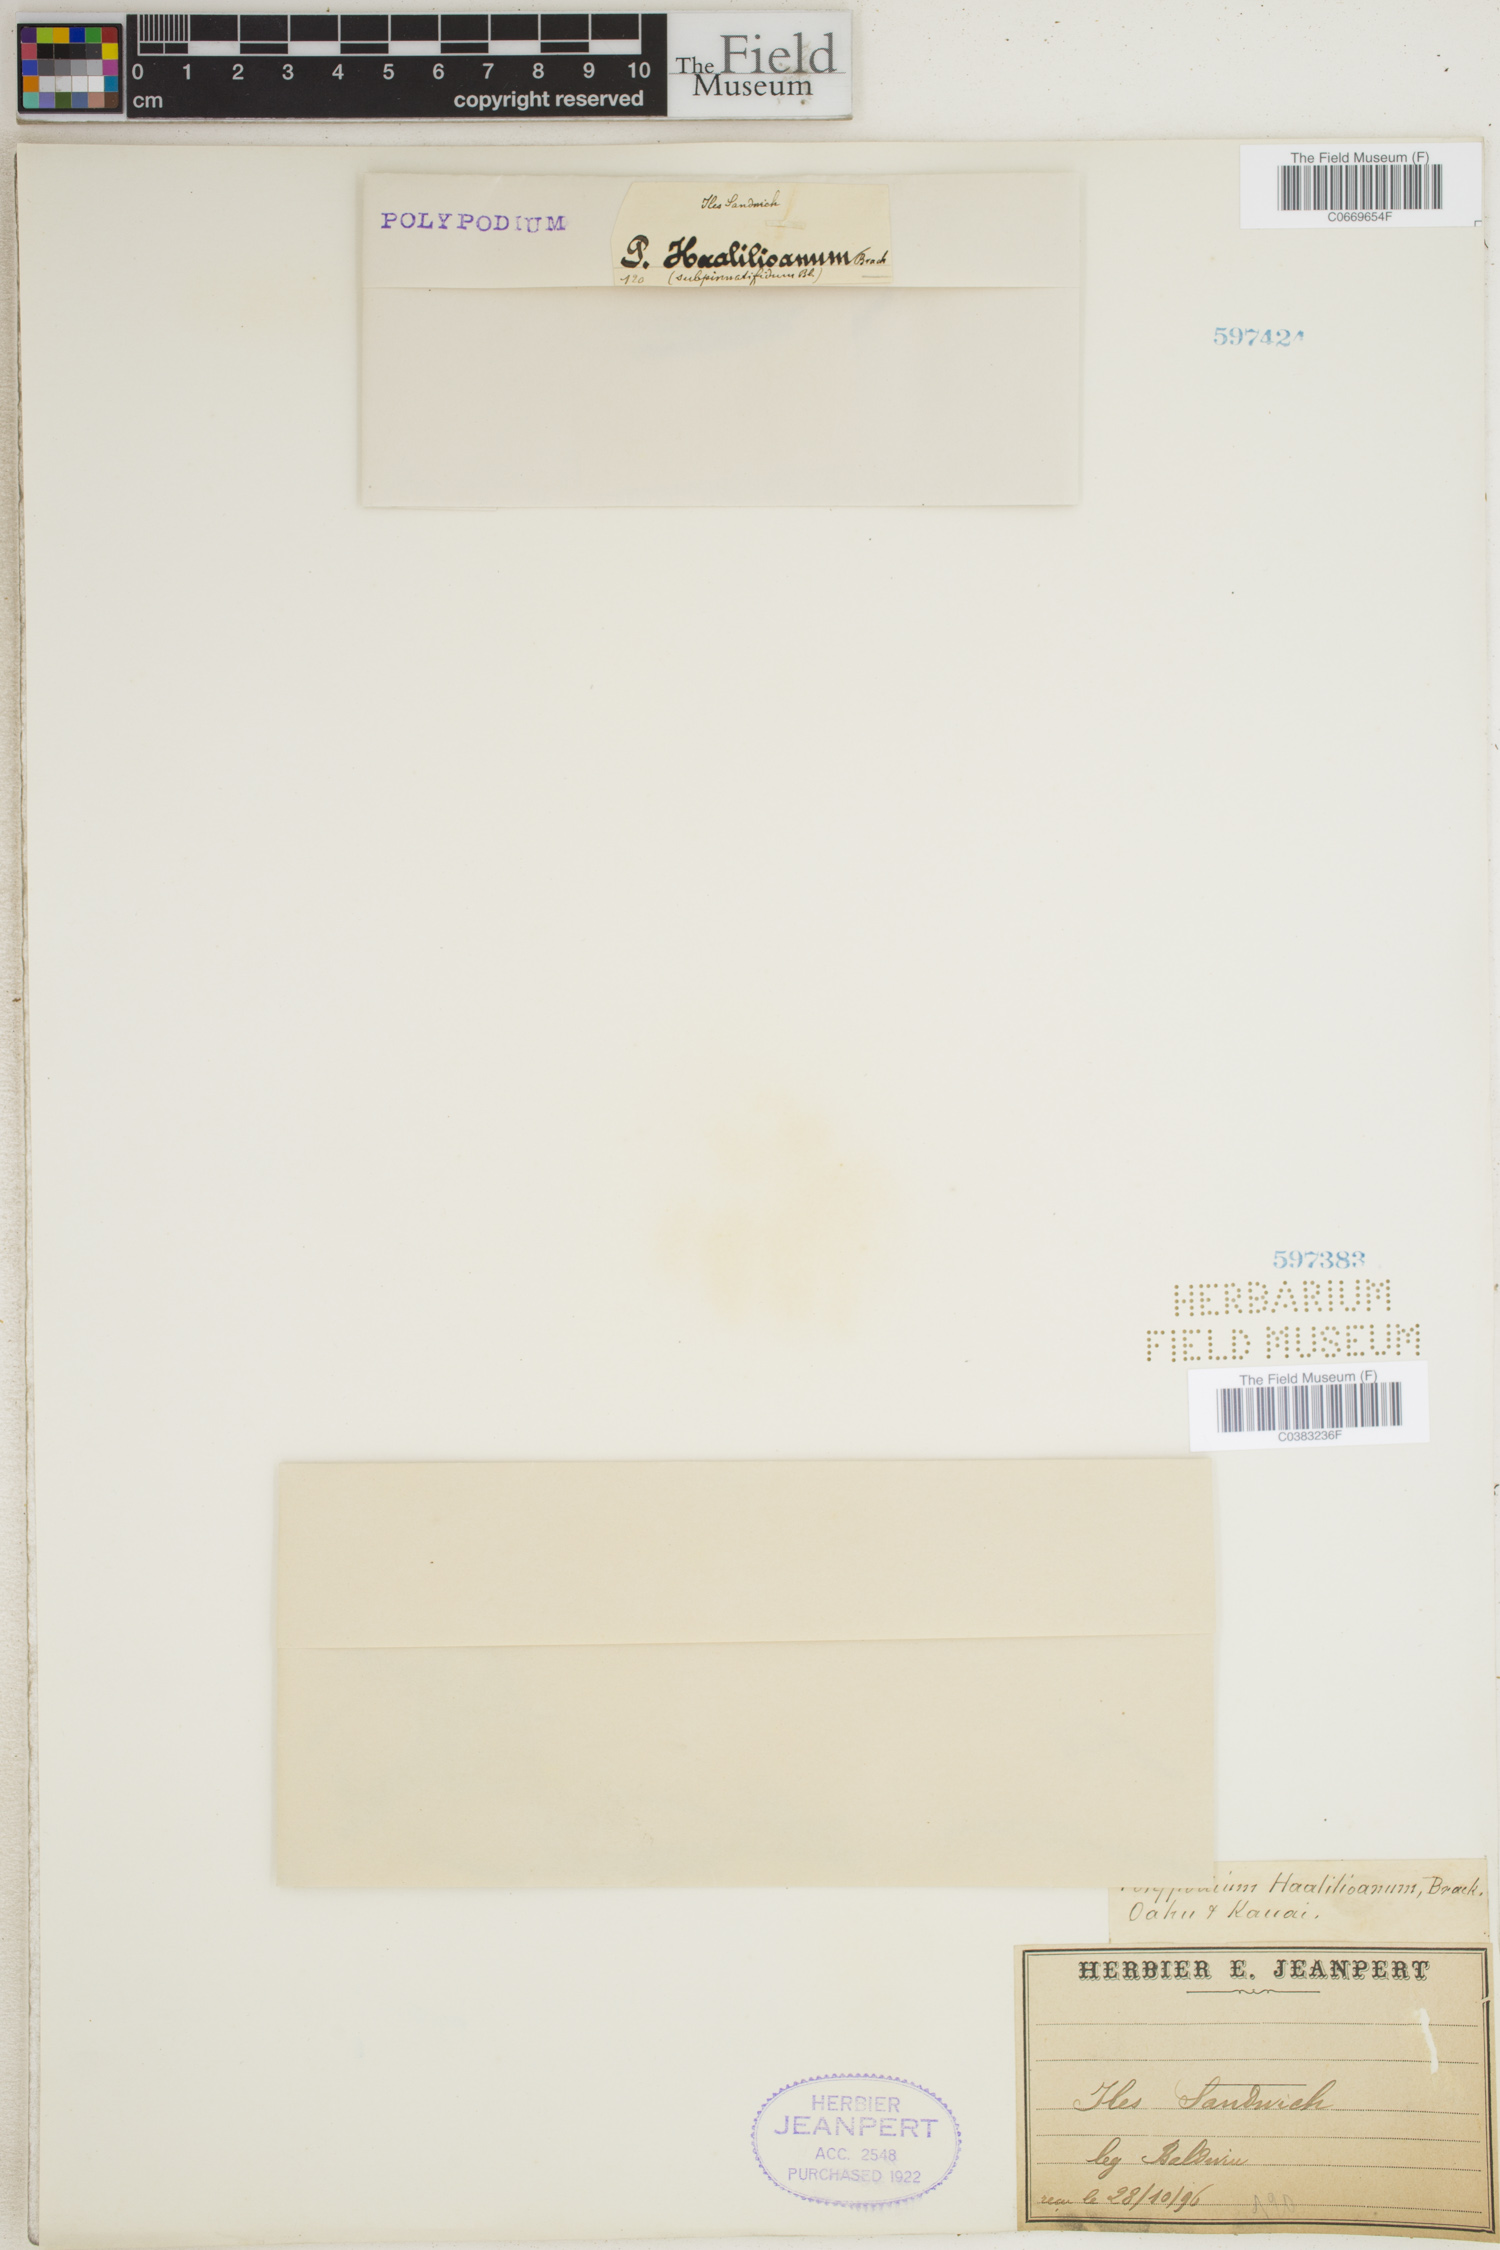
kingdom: Plantae
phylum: Tracheophyta
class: Polypodiopsida
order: Polypodiales
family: Polypodiaceae
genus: Adenophorus
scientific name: Adenophorus haalilioanus
